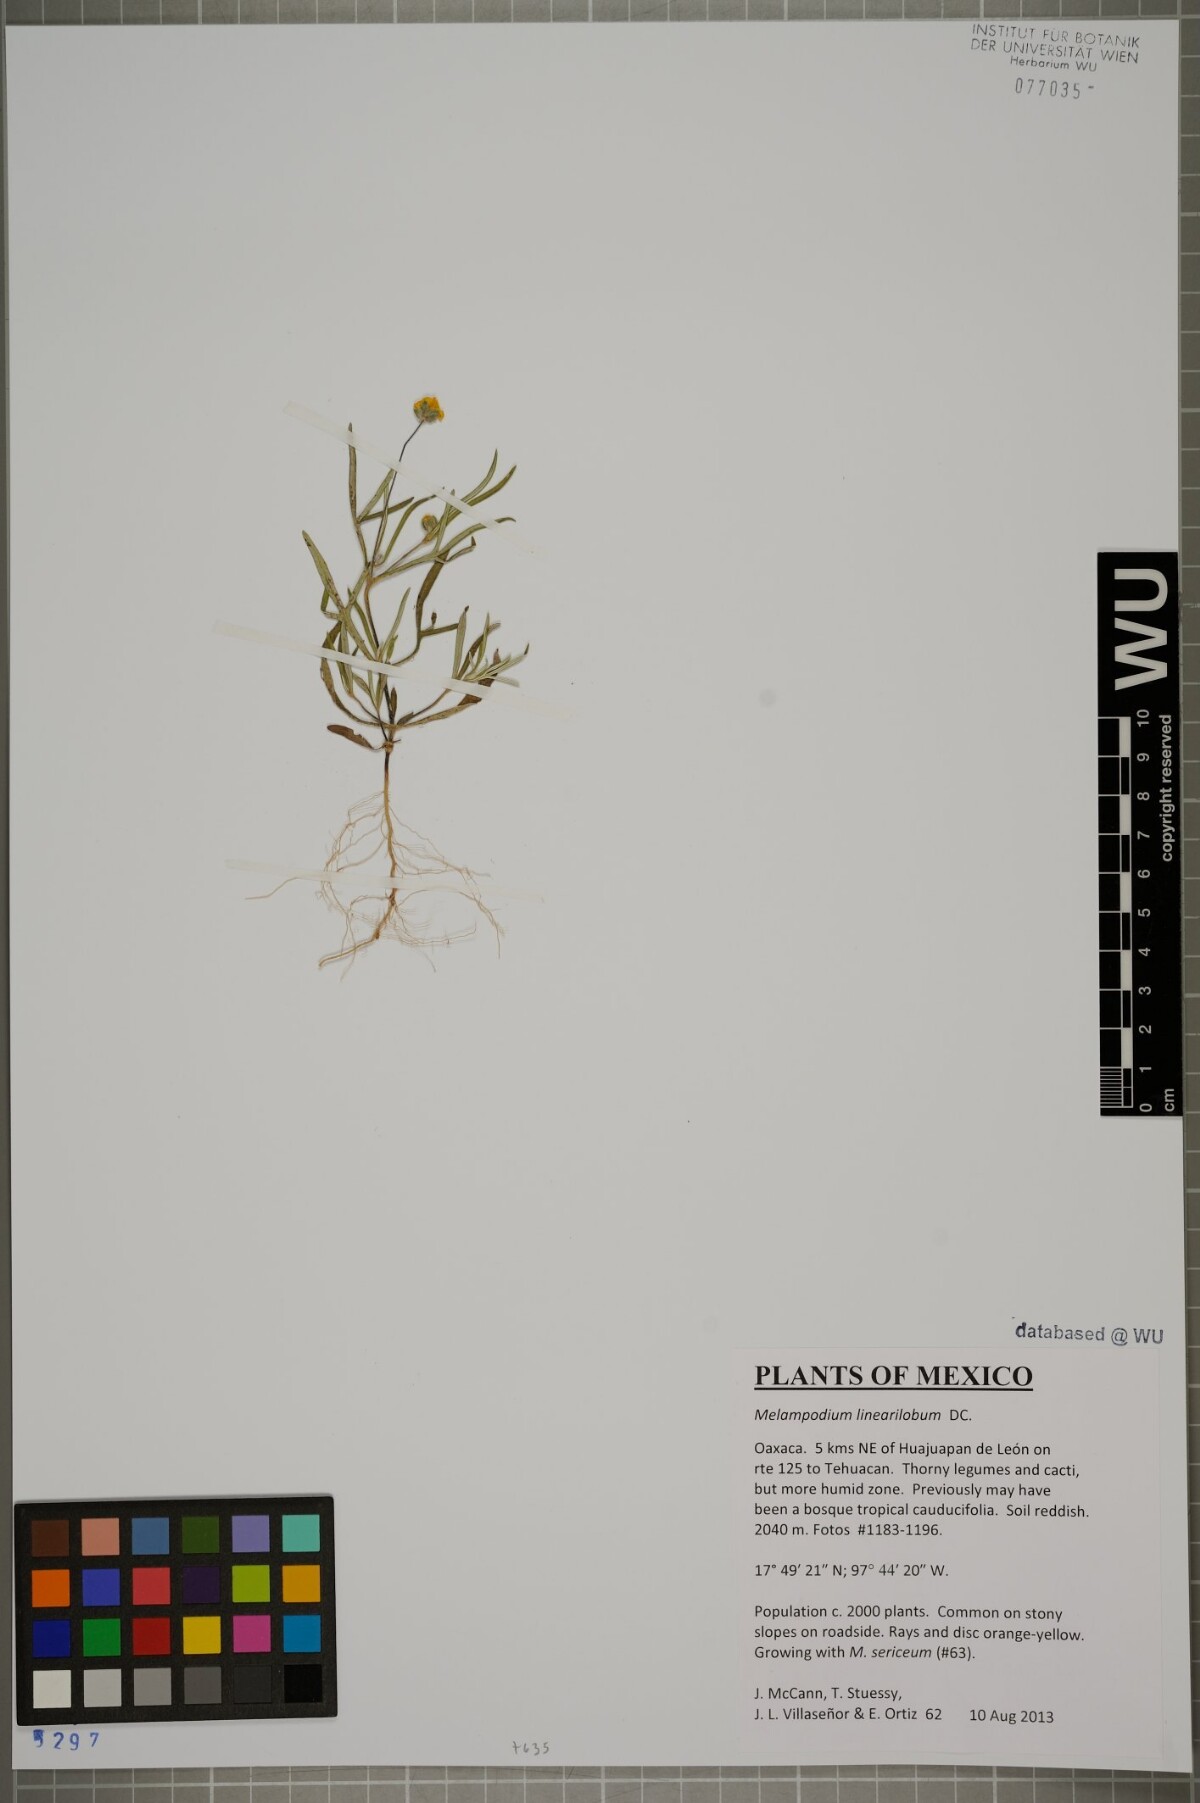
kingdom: Plantae
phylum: Tracheophyta
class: Magnoliopsida
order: Asterales
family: Asteraceae
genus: Melampodium
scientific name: Melampodium linearilobum
